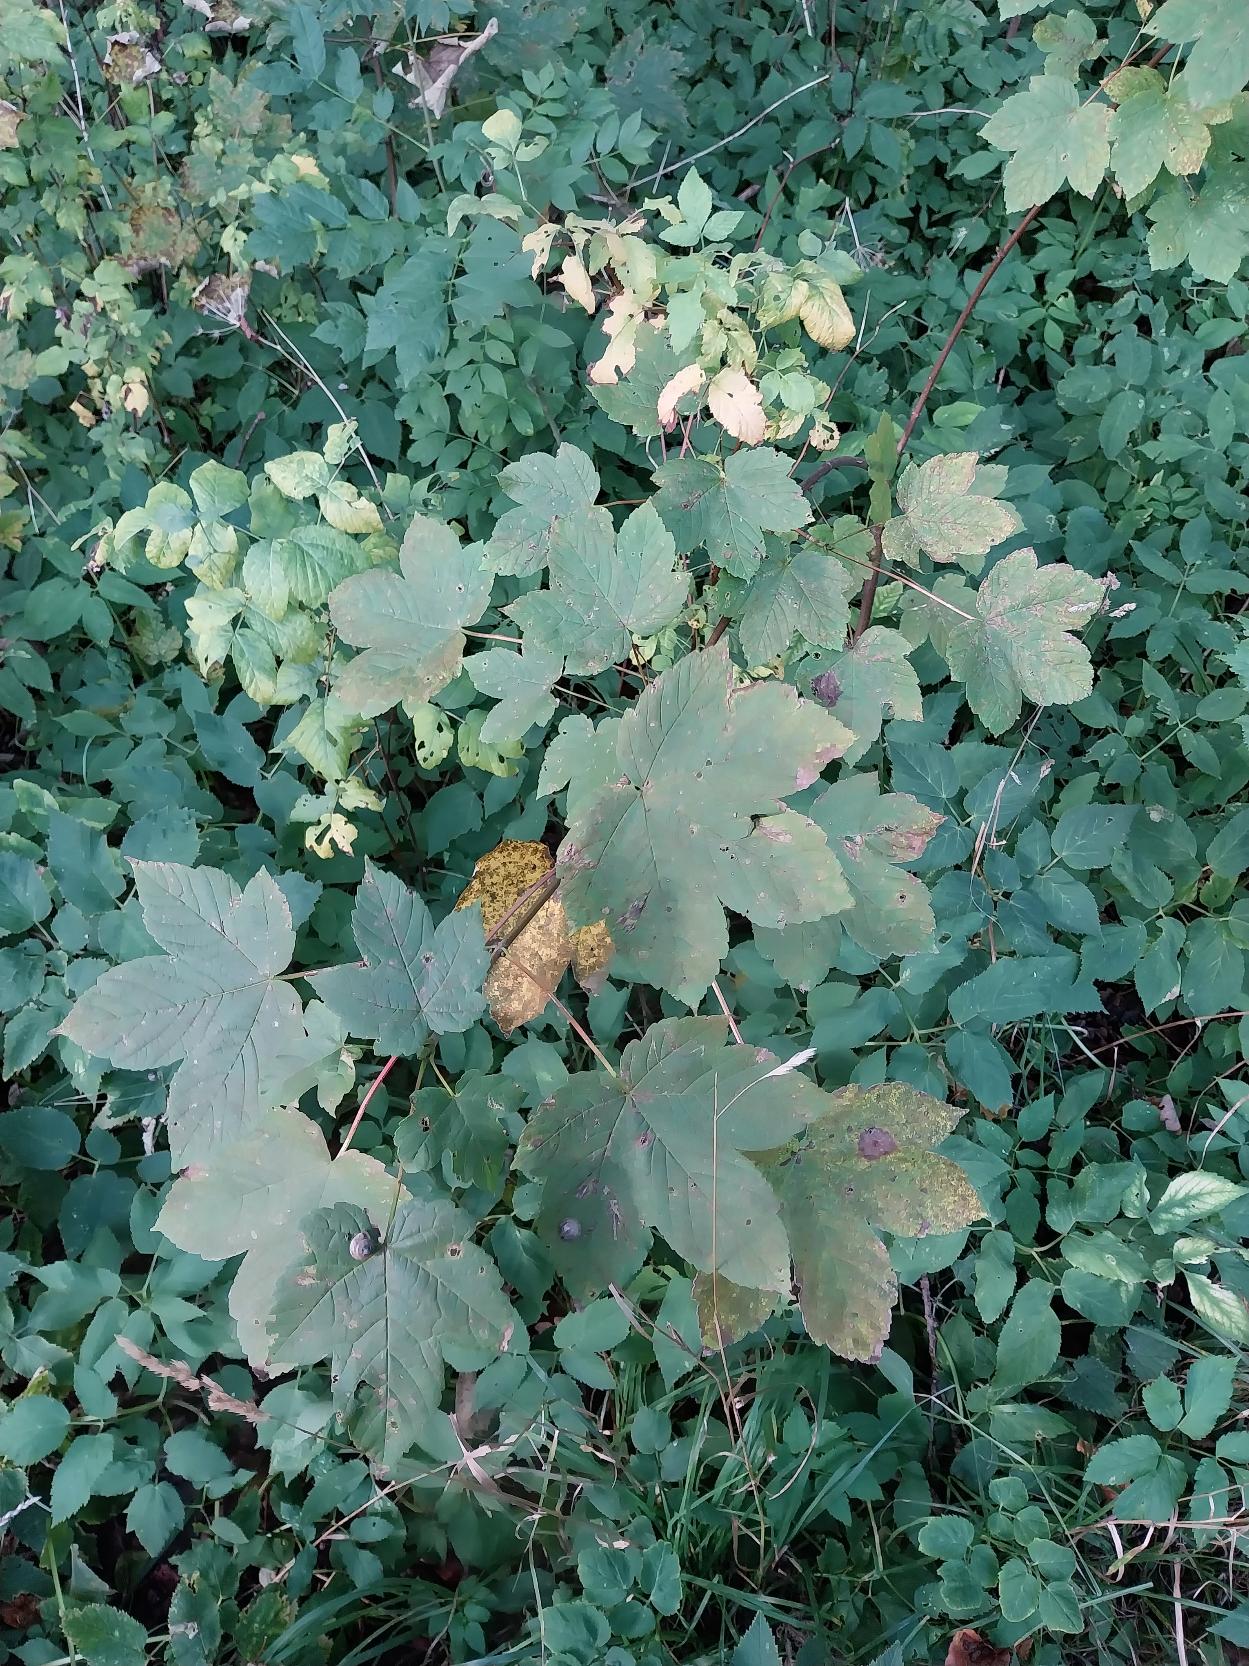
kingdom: Plantae
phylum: Tracheophyta
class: Magnoliopsida
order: Sapindales
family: Sapindaceae
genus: Acer
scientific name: Acer pseudoplatanus
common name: Ahorn
